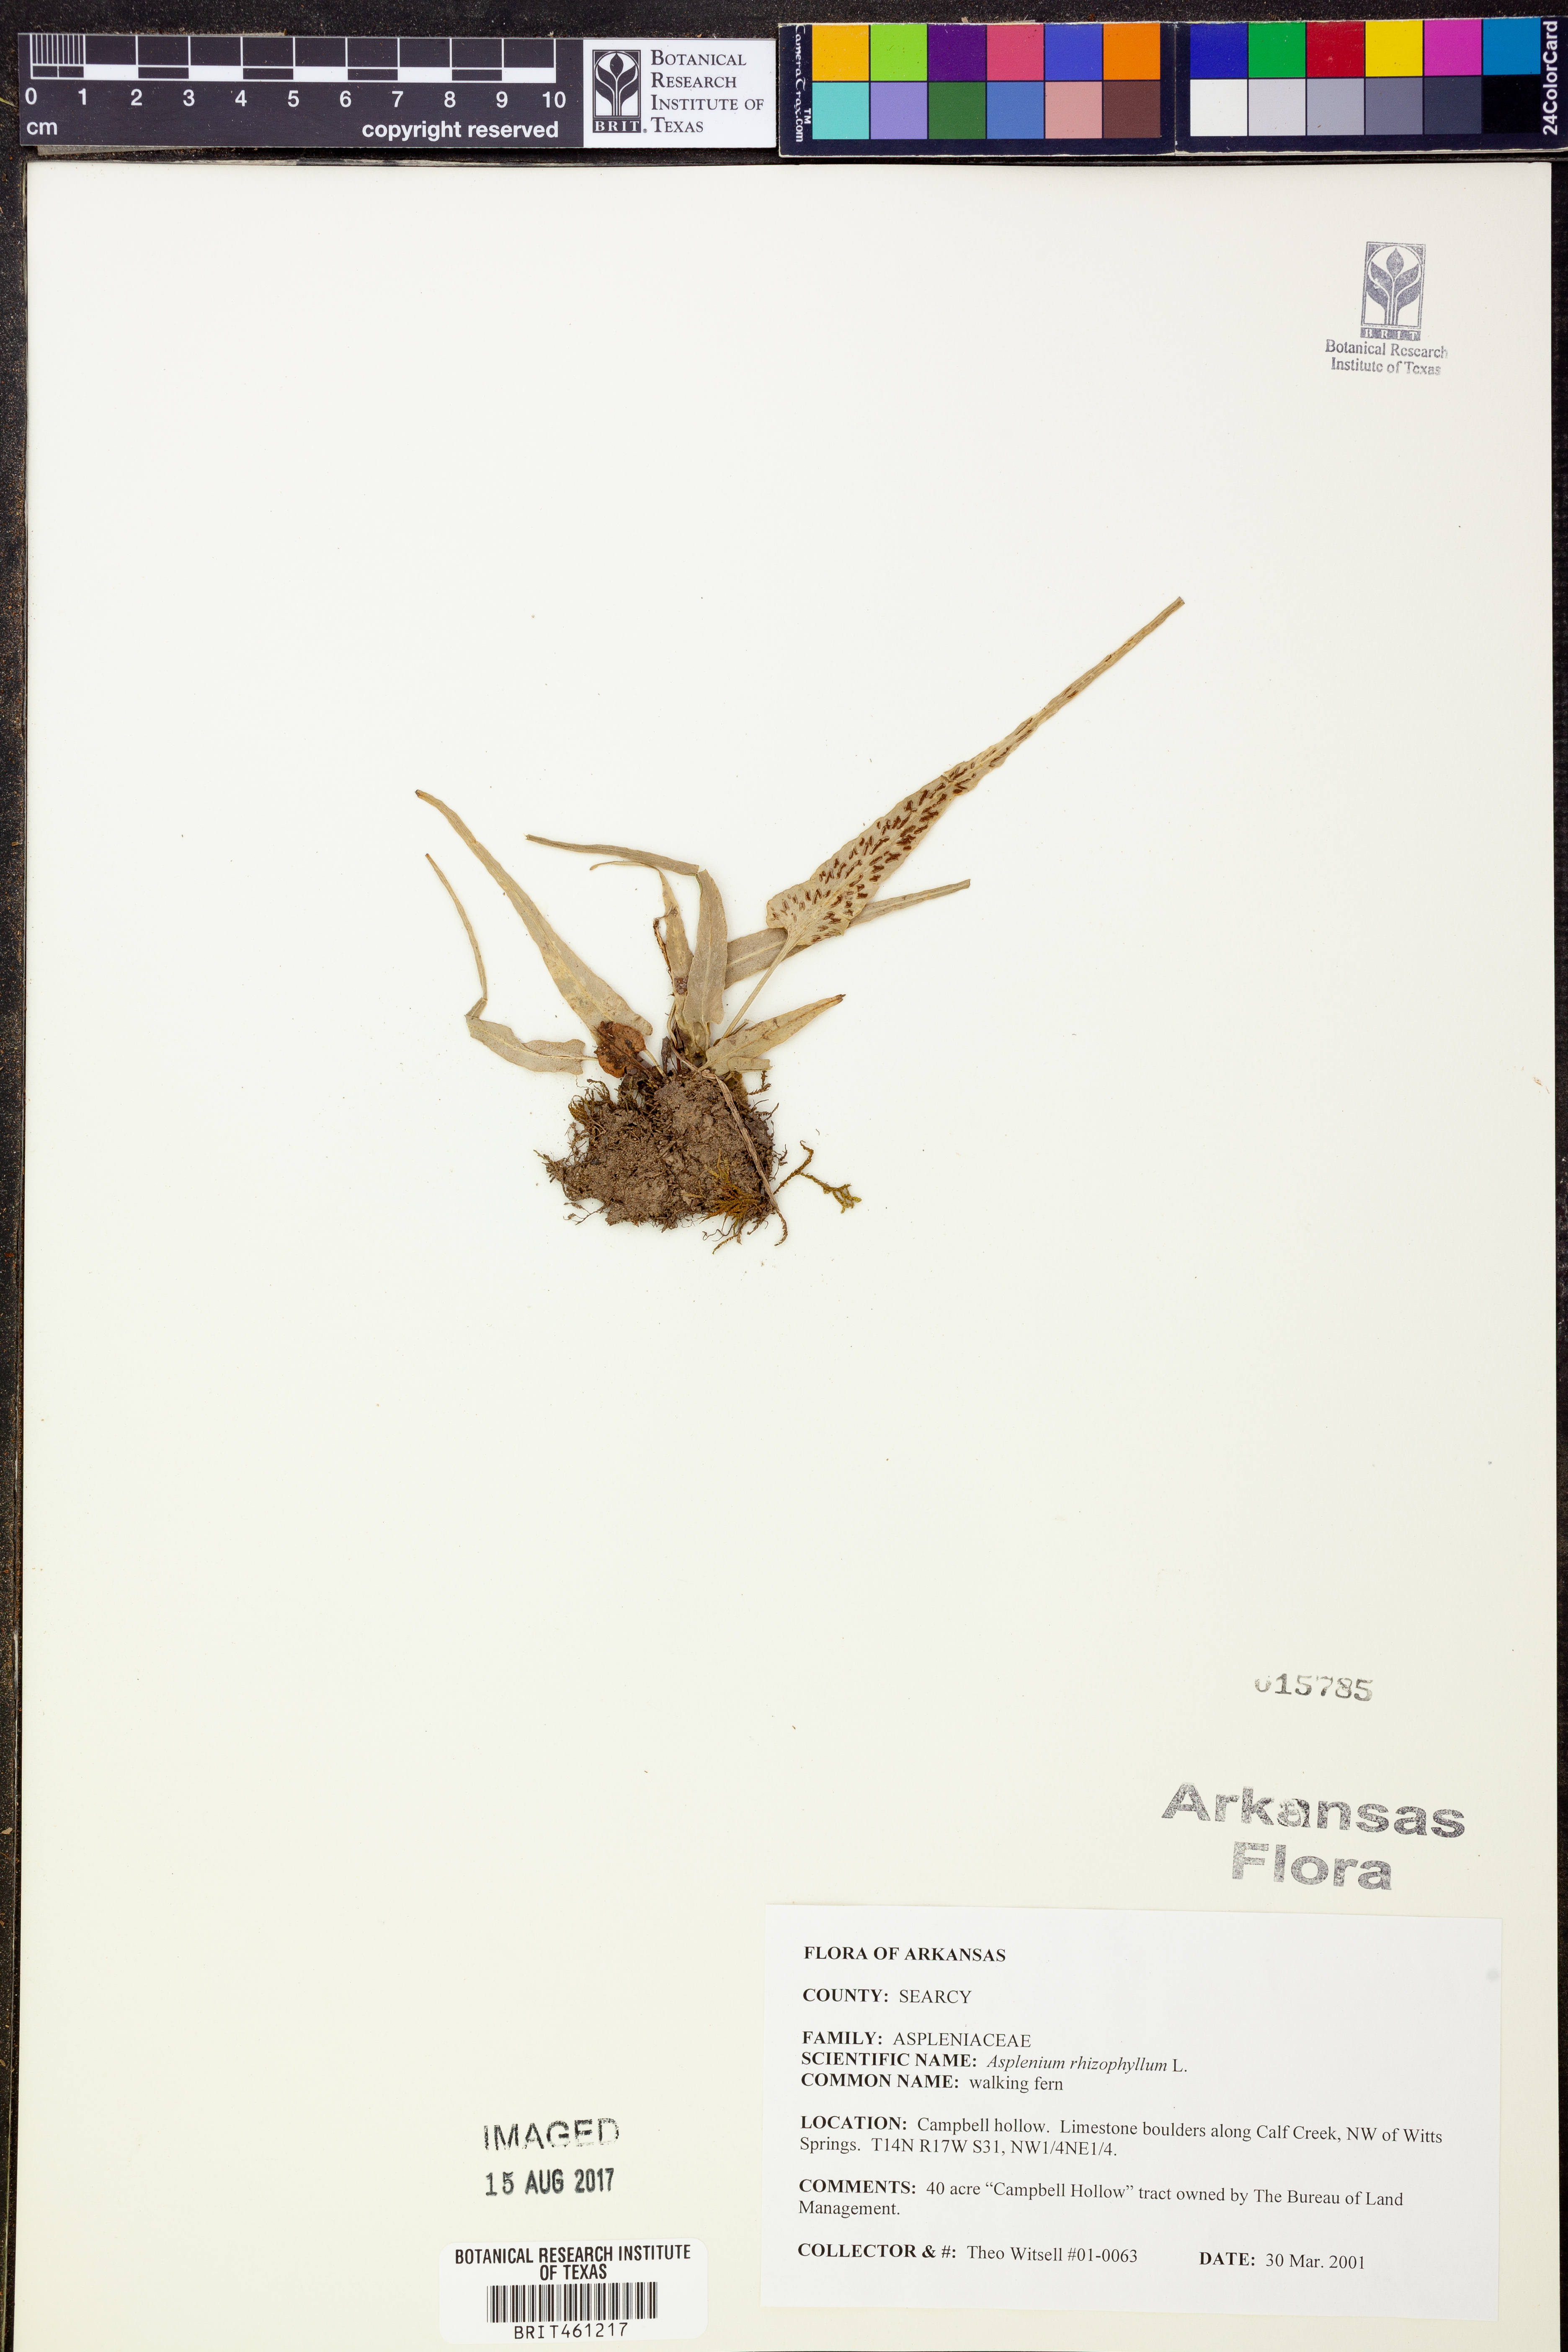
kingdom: Plantae
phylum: Tracheophyta
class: Polypodiopsida
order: Polypodiales
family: Aspleniaceae
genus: Asplenium
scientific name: Asplenium rhizophyllum
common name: Walking fern
